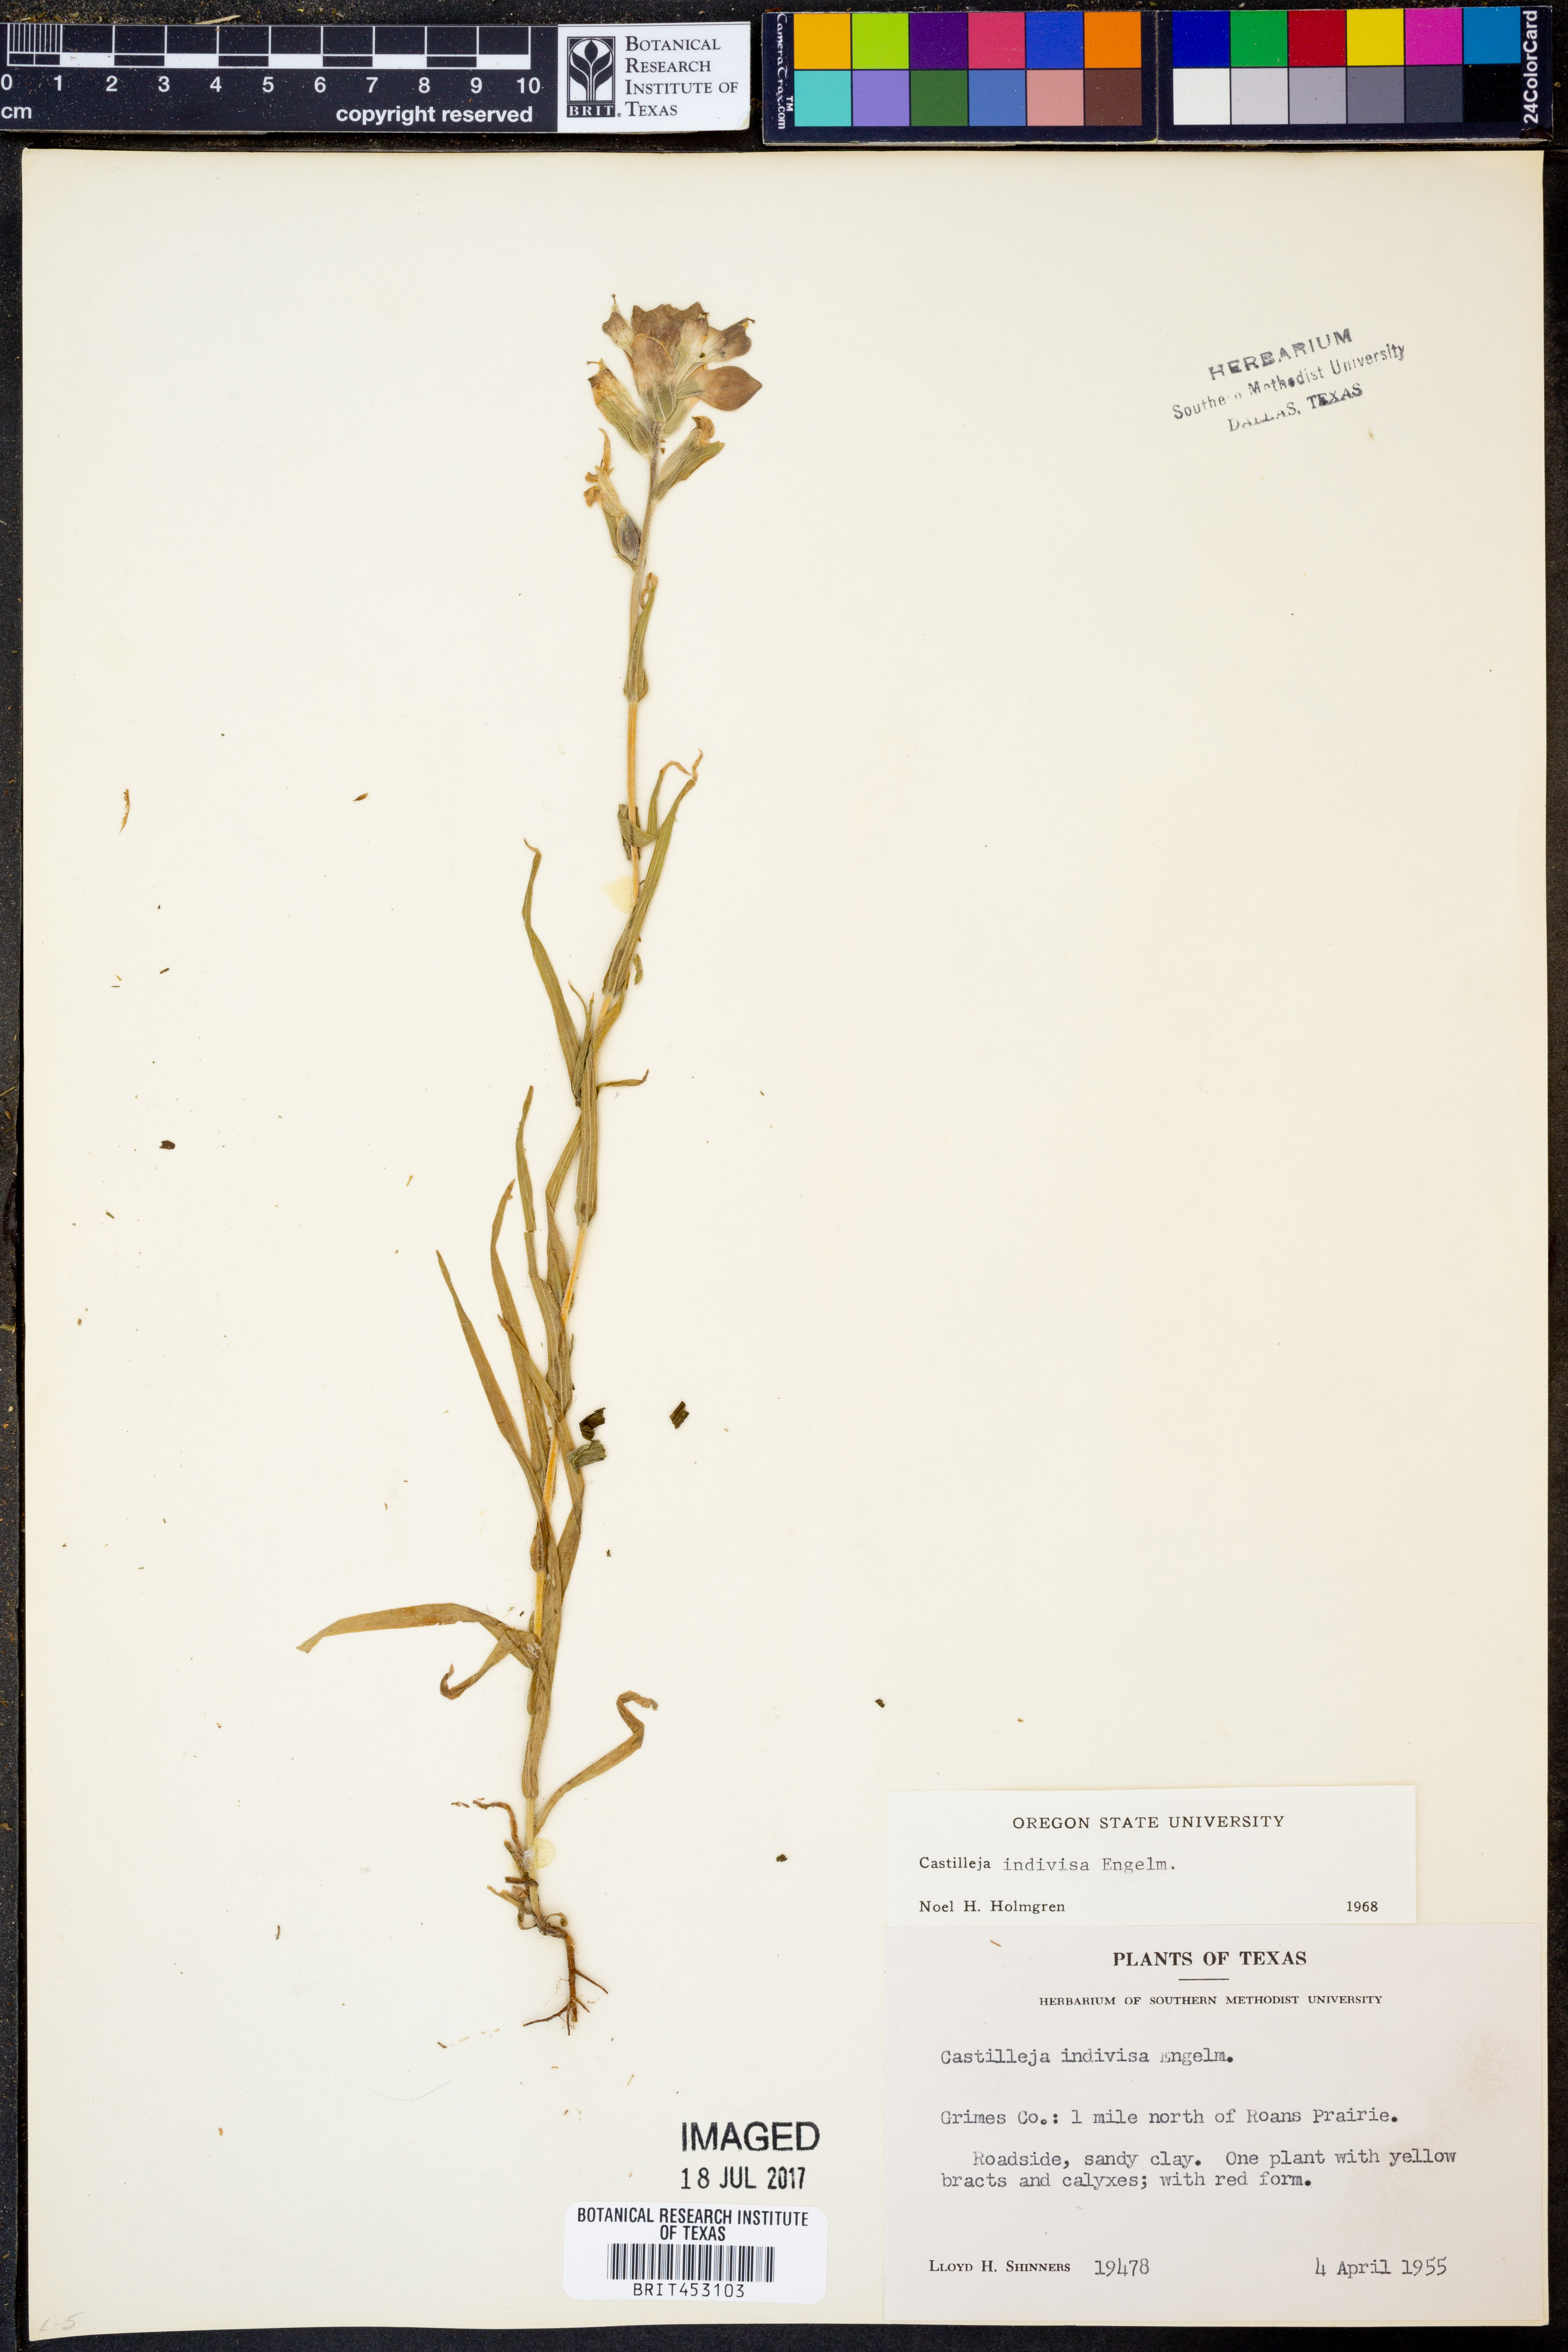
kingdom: Plantae
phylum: Tracheophyta
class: Magnoliopsida
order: Lamiales
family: Orobanchaceae
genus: Castilleja
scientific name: Castilleja indivisa
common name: Texas paintbrush
